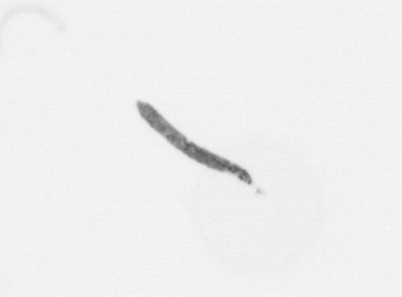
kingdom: Chromista
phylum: Ochrophyta
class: Bacillariophyceae
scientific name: Bacillariophyceae
